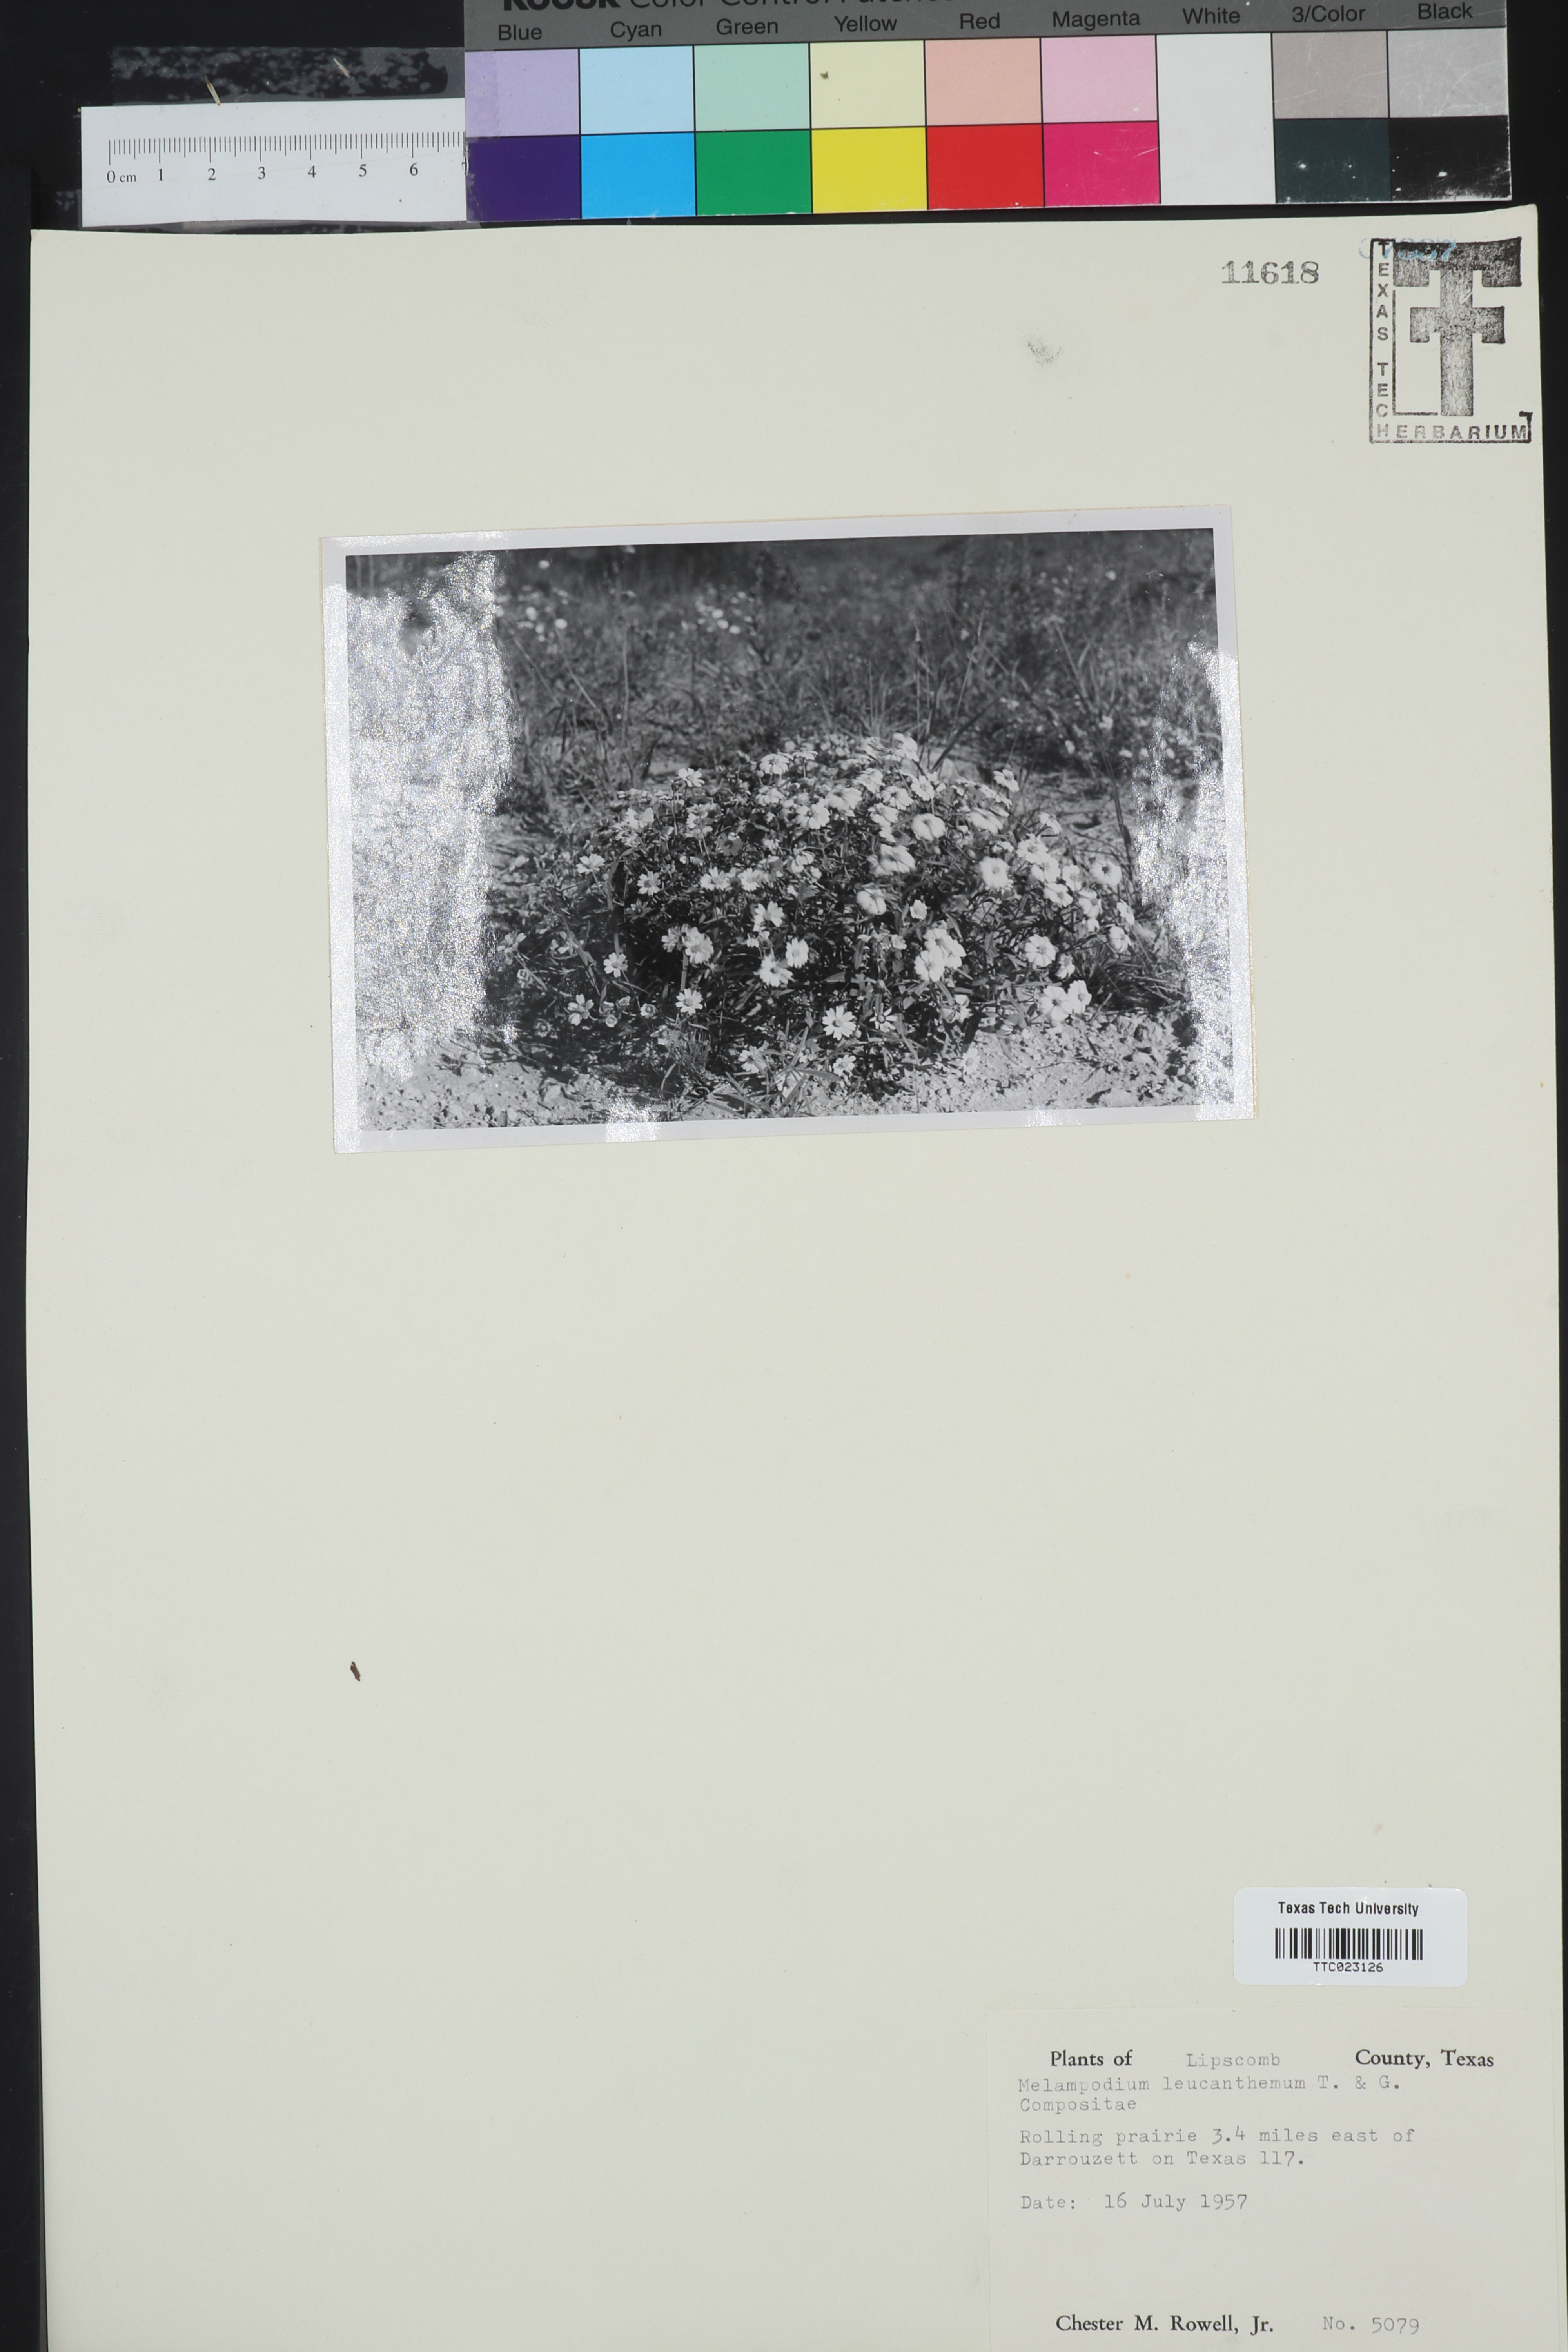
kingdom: Plantae
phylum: Tracheophyta
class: Magnoliopsida
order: Asterales
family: Asteraceae
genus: Melampodium
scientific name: Melampodium leucanthum
